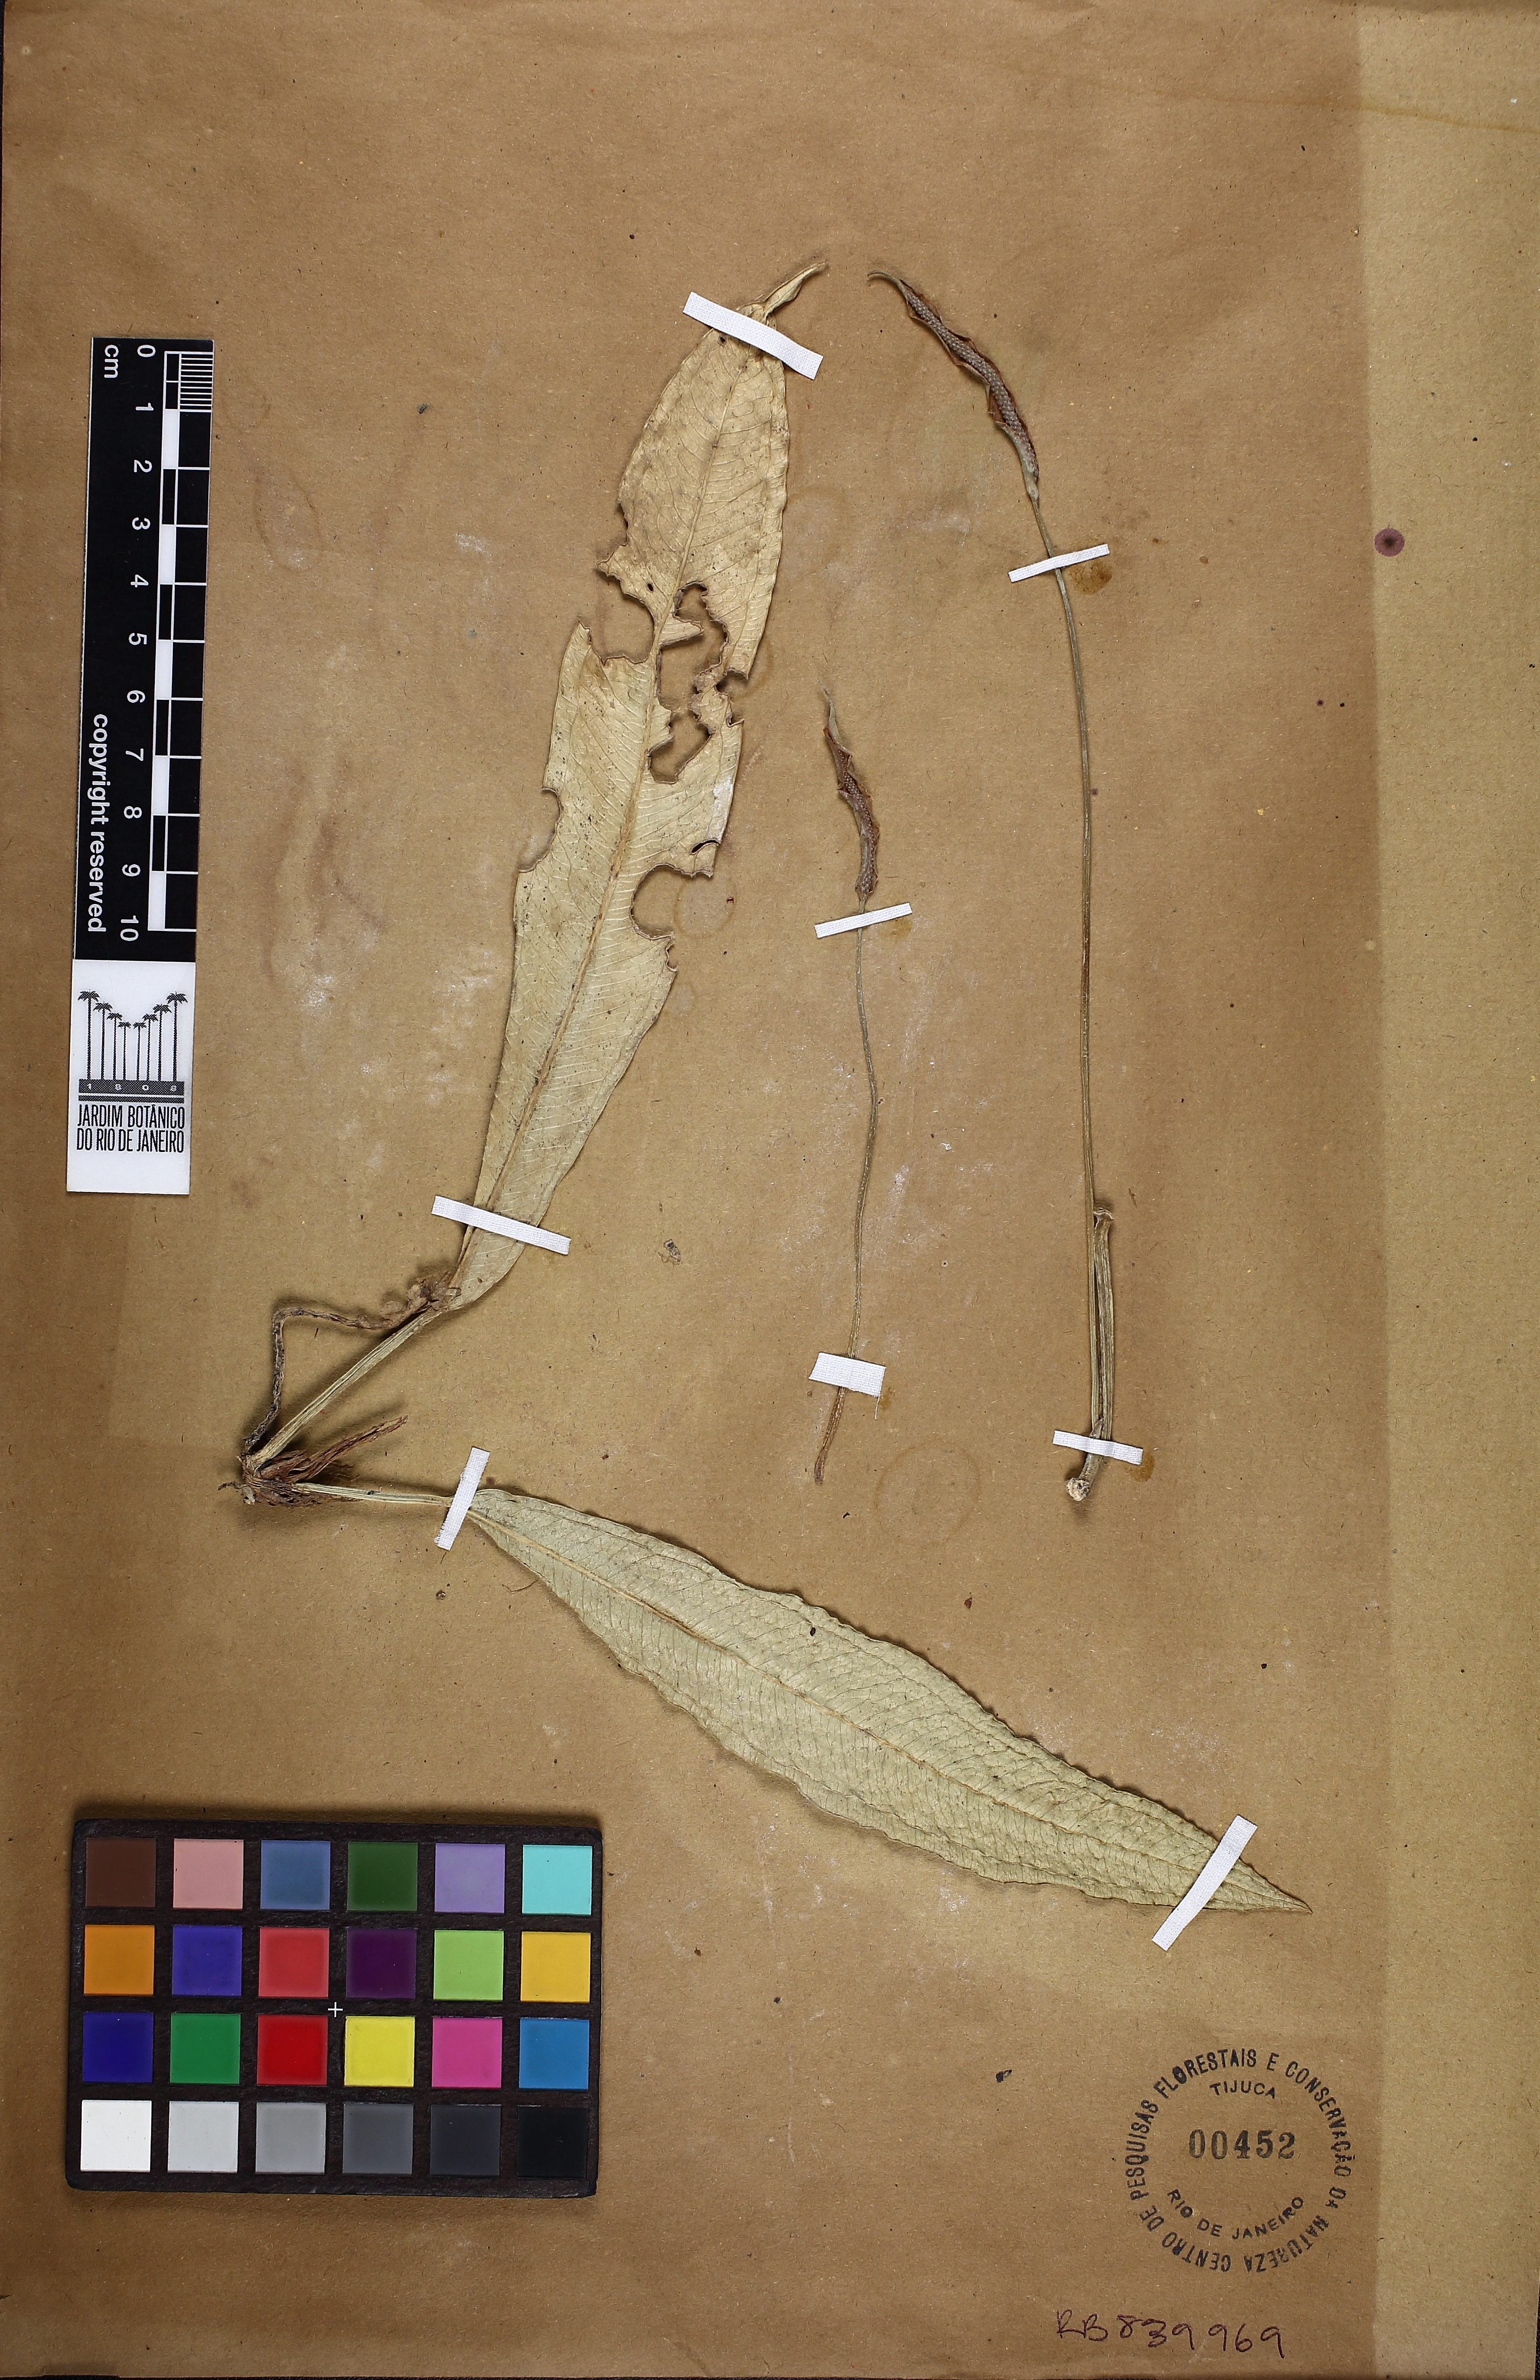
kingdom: Plantae
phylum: Tracheophyta
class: Liliopsida
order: Alismatales
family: Araceae
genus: Anthurium
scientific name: Anthurium comtum
